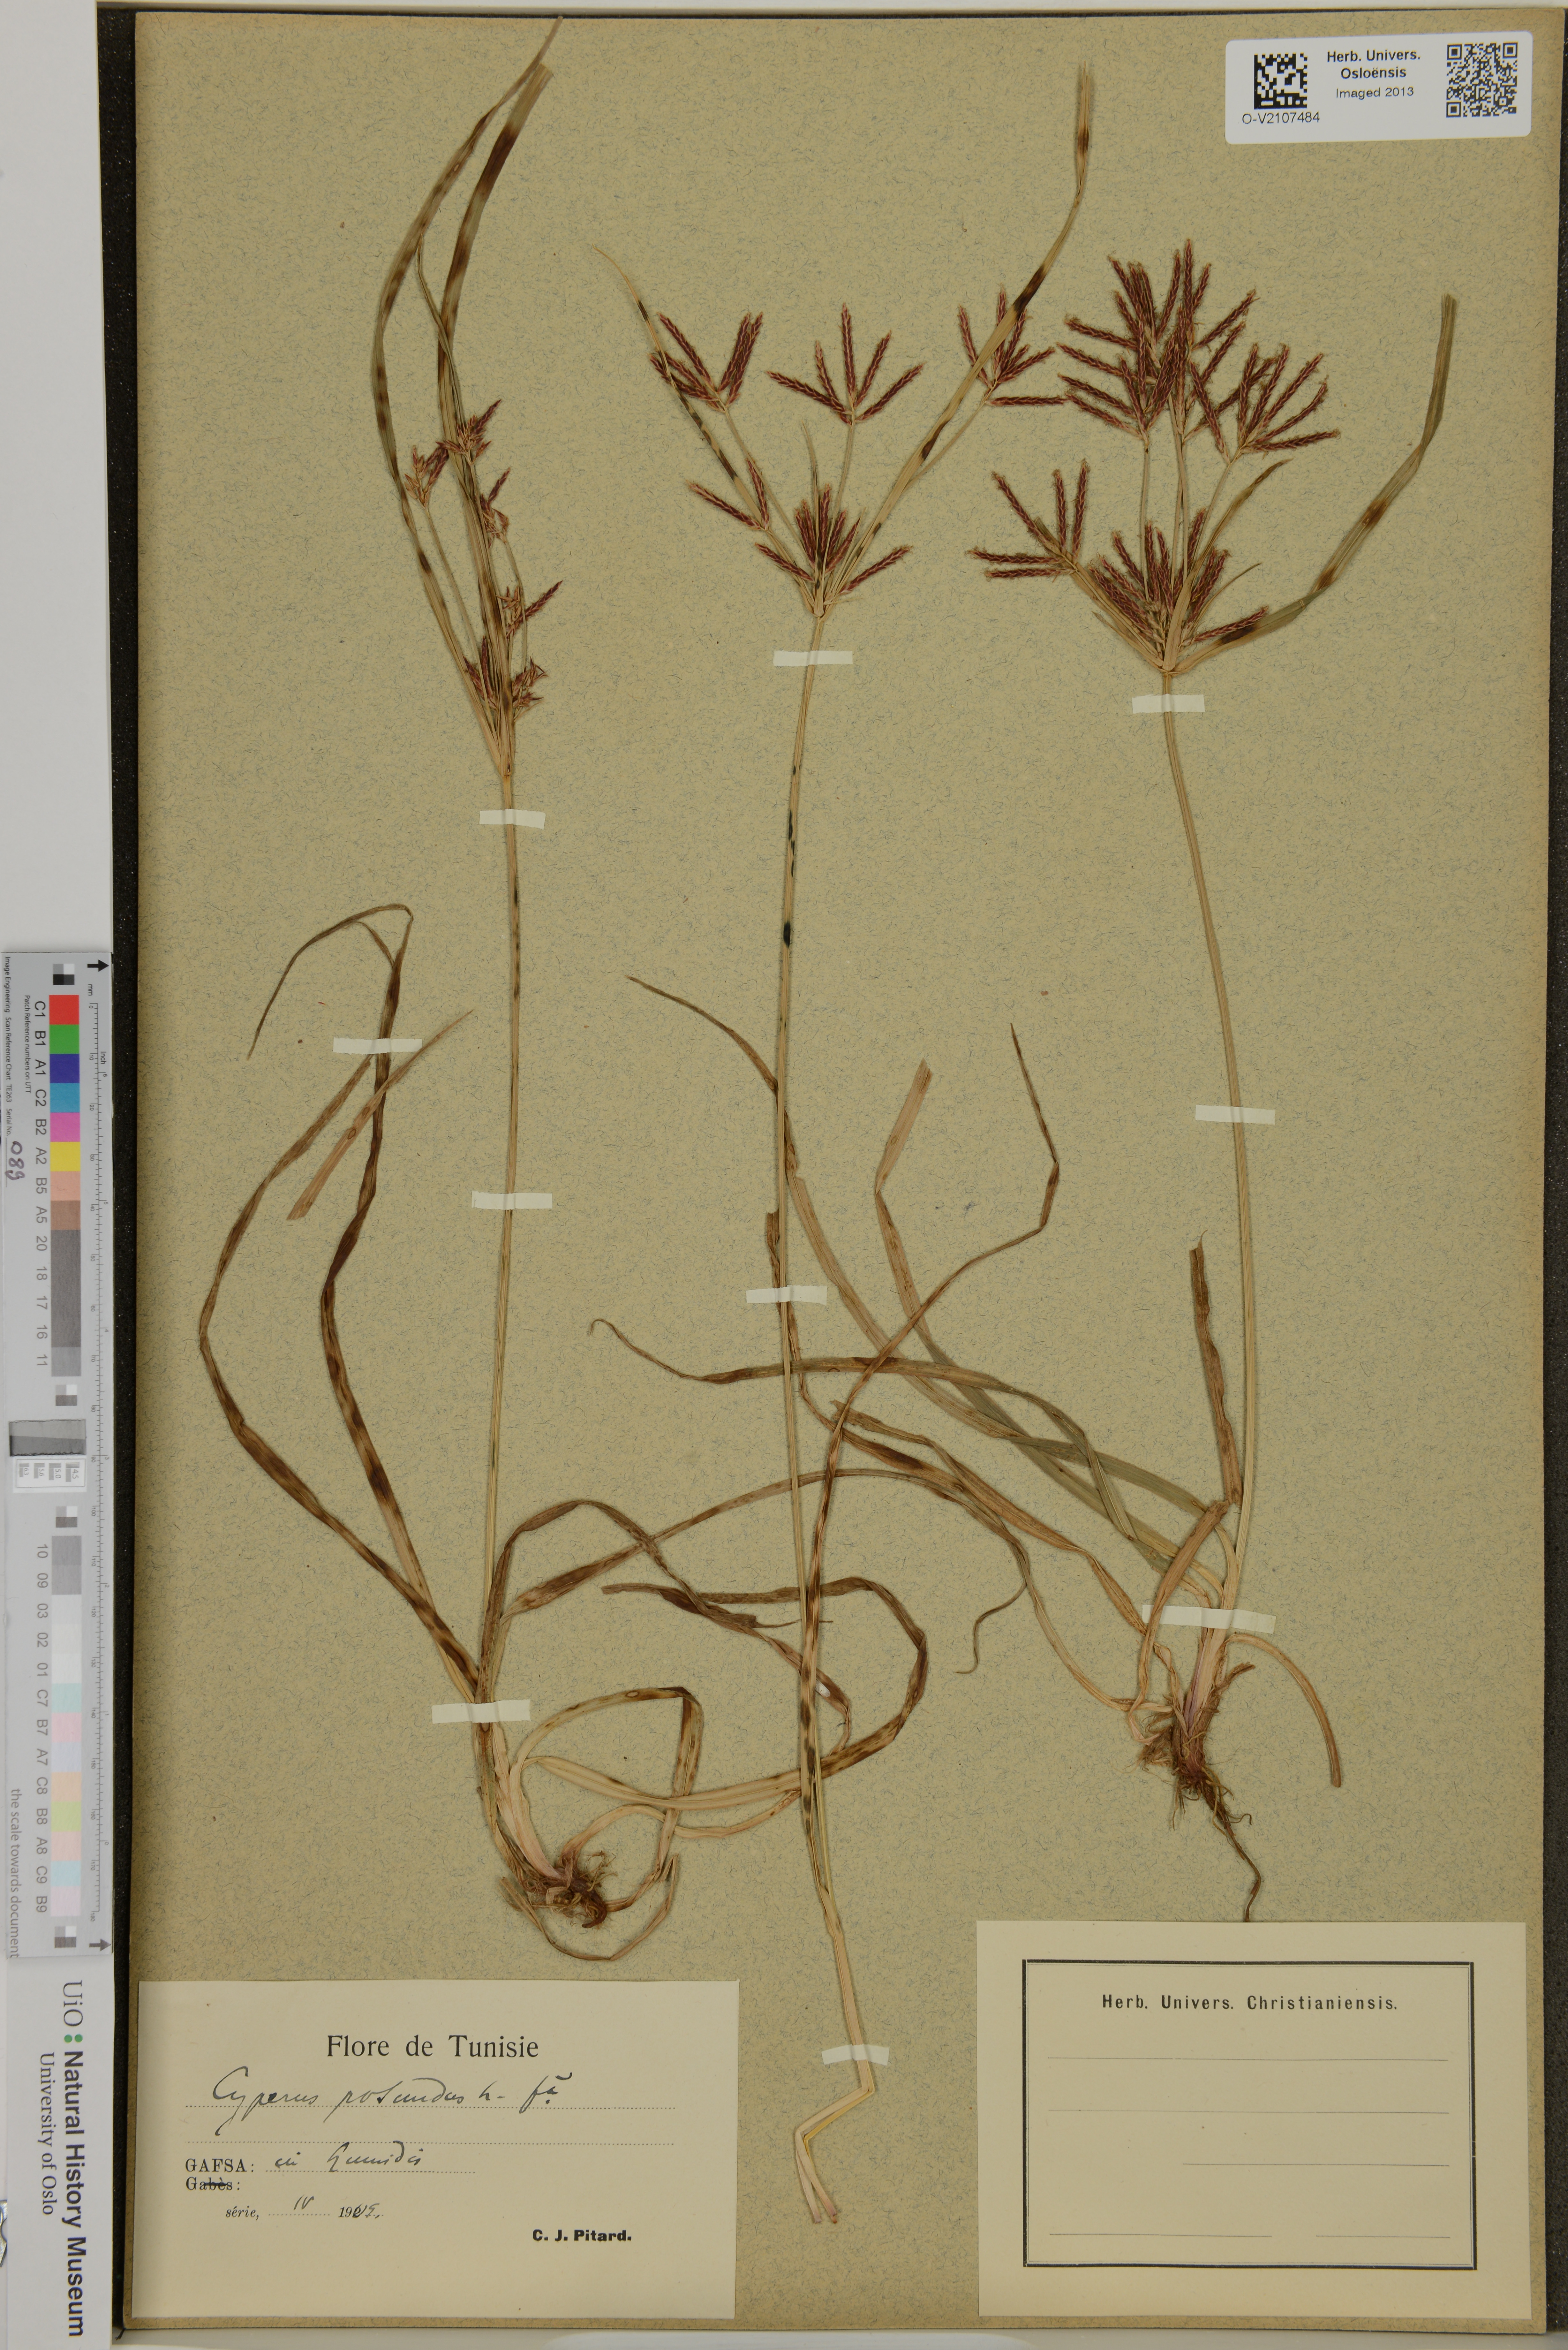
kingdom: Plantae
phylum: Tracheophyta
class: Liliopsida
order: Poales
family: Cyperaceae
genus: Cyperus
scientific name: Cyperus rotundus
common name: Nutgrass
